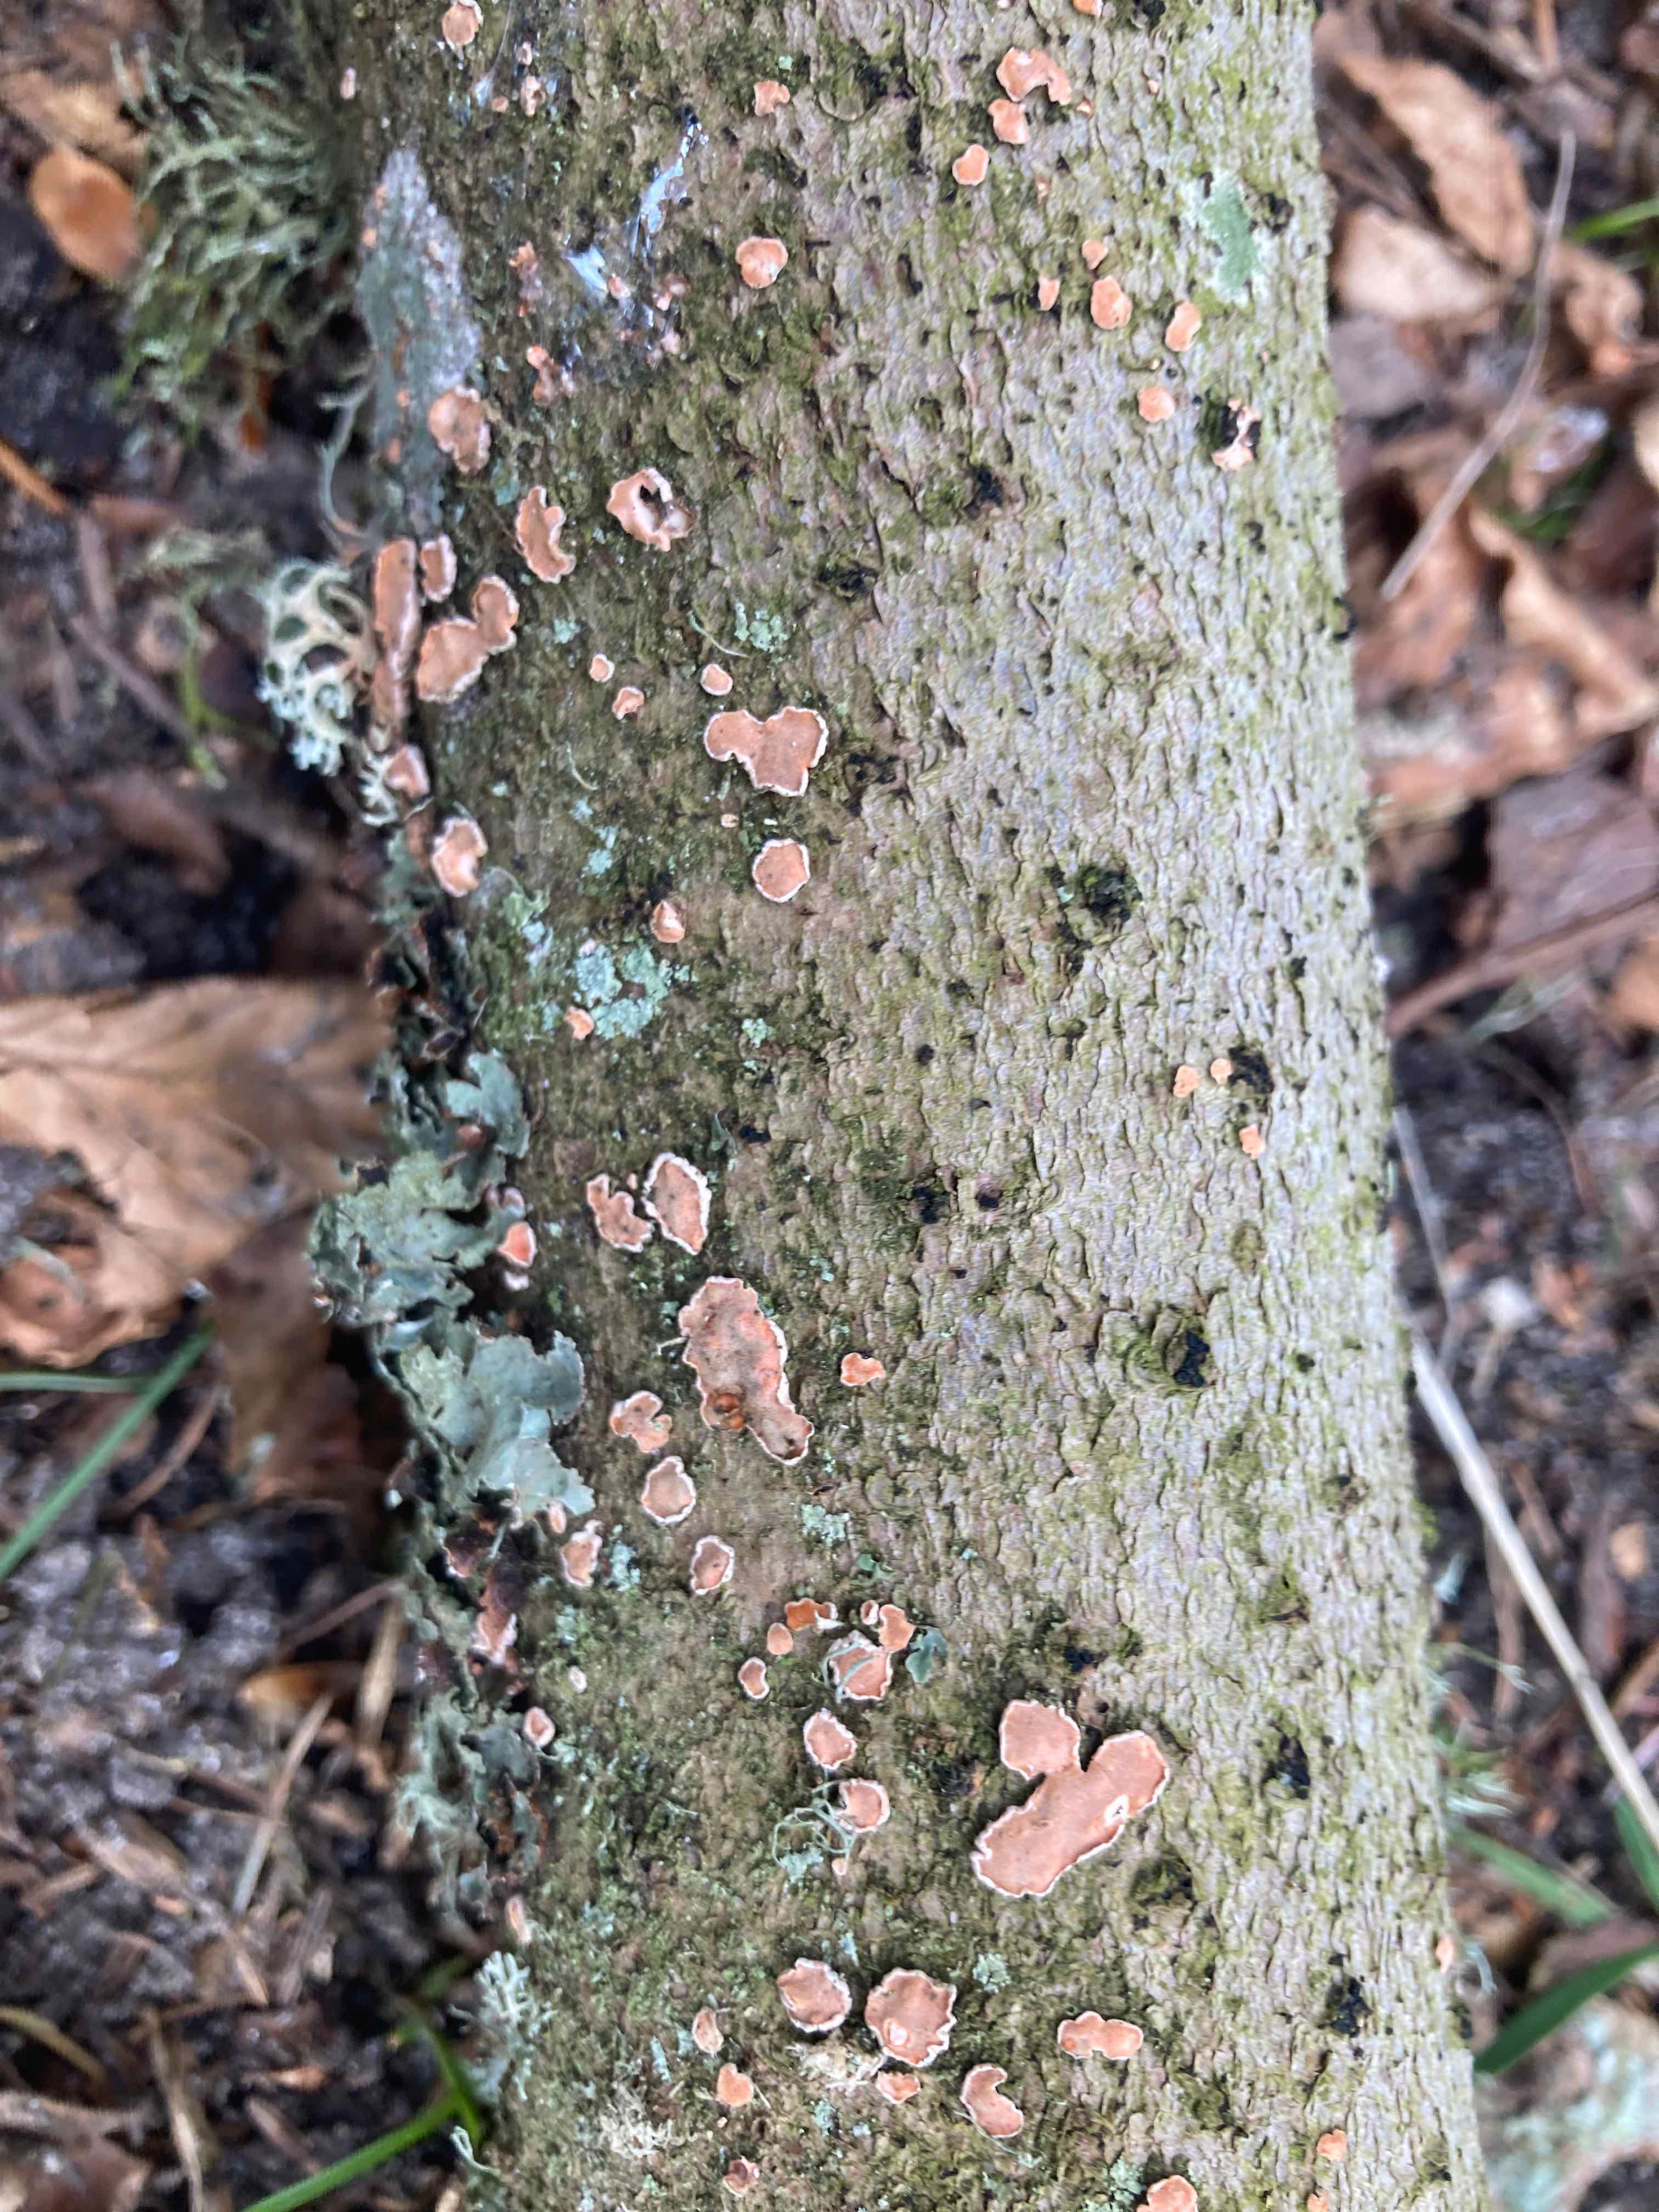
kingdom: Fungi
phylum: Basidiomycota
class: Agaricomycetes
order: Russulales
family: Stereaceae
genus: Aleurodiscus
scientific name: Aleurodiscus amorphus
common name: orange skiveskorpe
